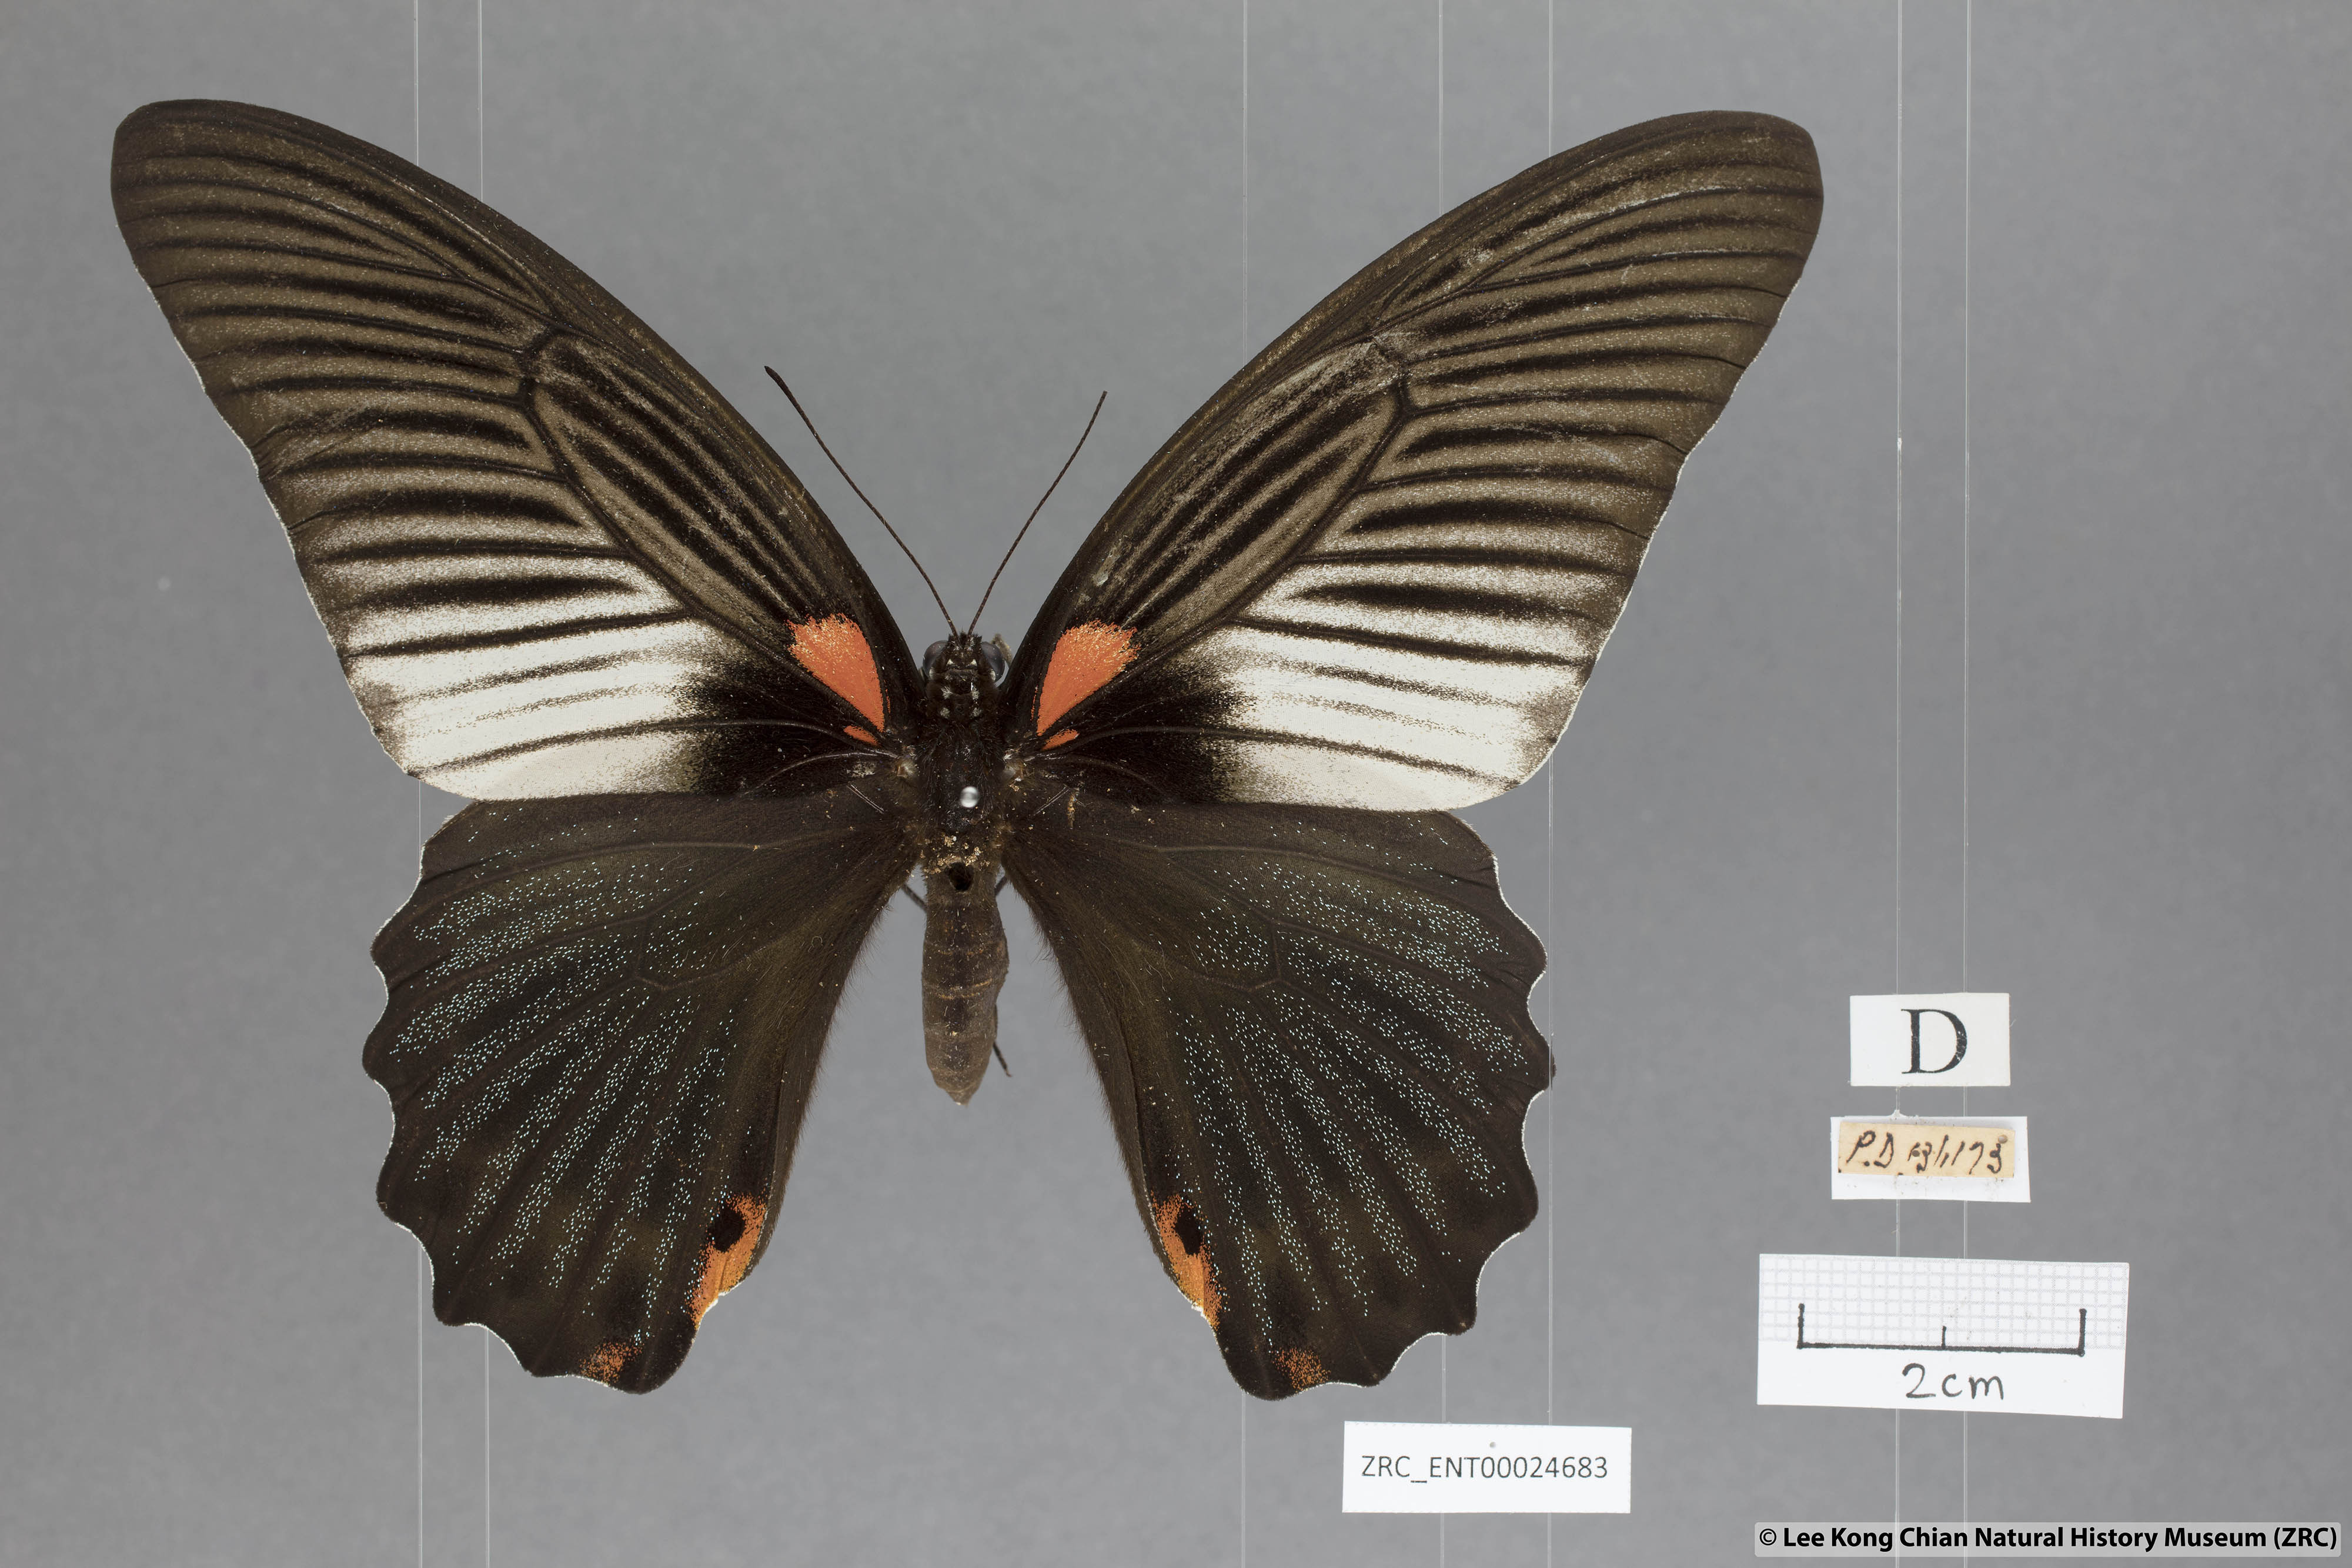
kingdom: Animalia
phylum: Arthropoda
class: Insecta
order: Lepidoptera
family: Papilionidae
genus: Papilio
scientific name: Papilio memnon
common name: Great mormon
